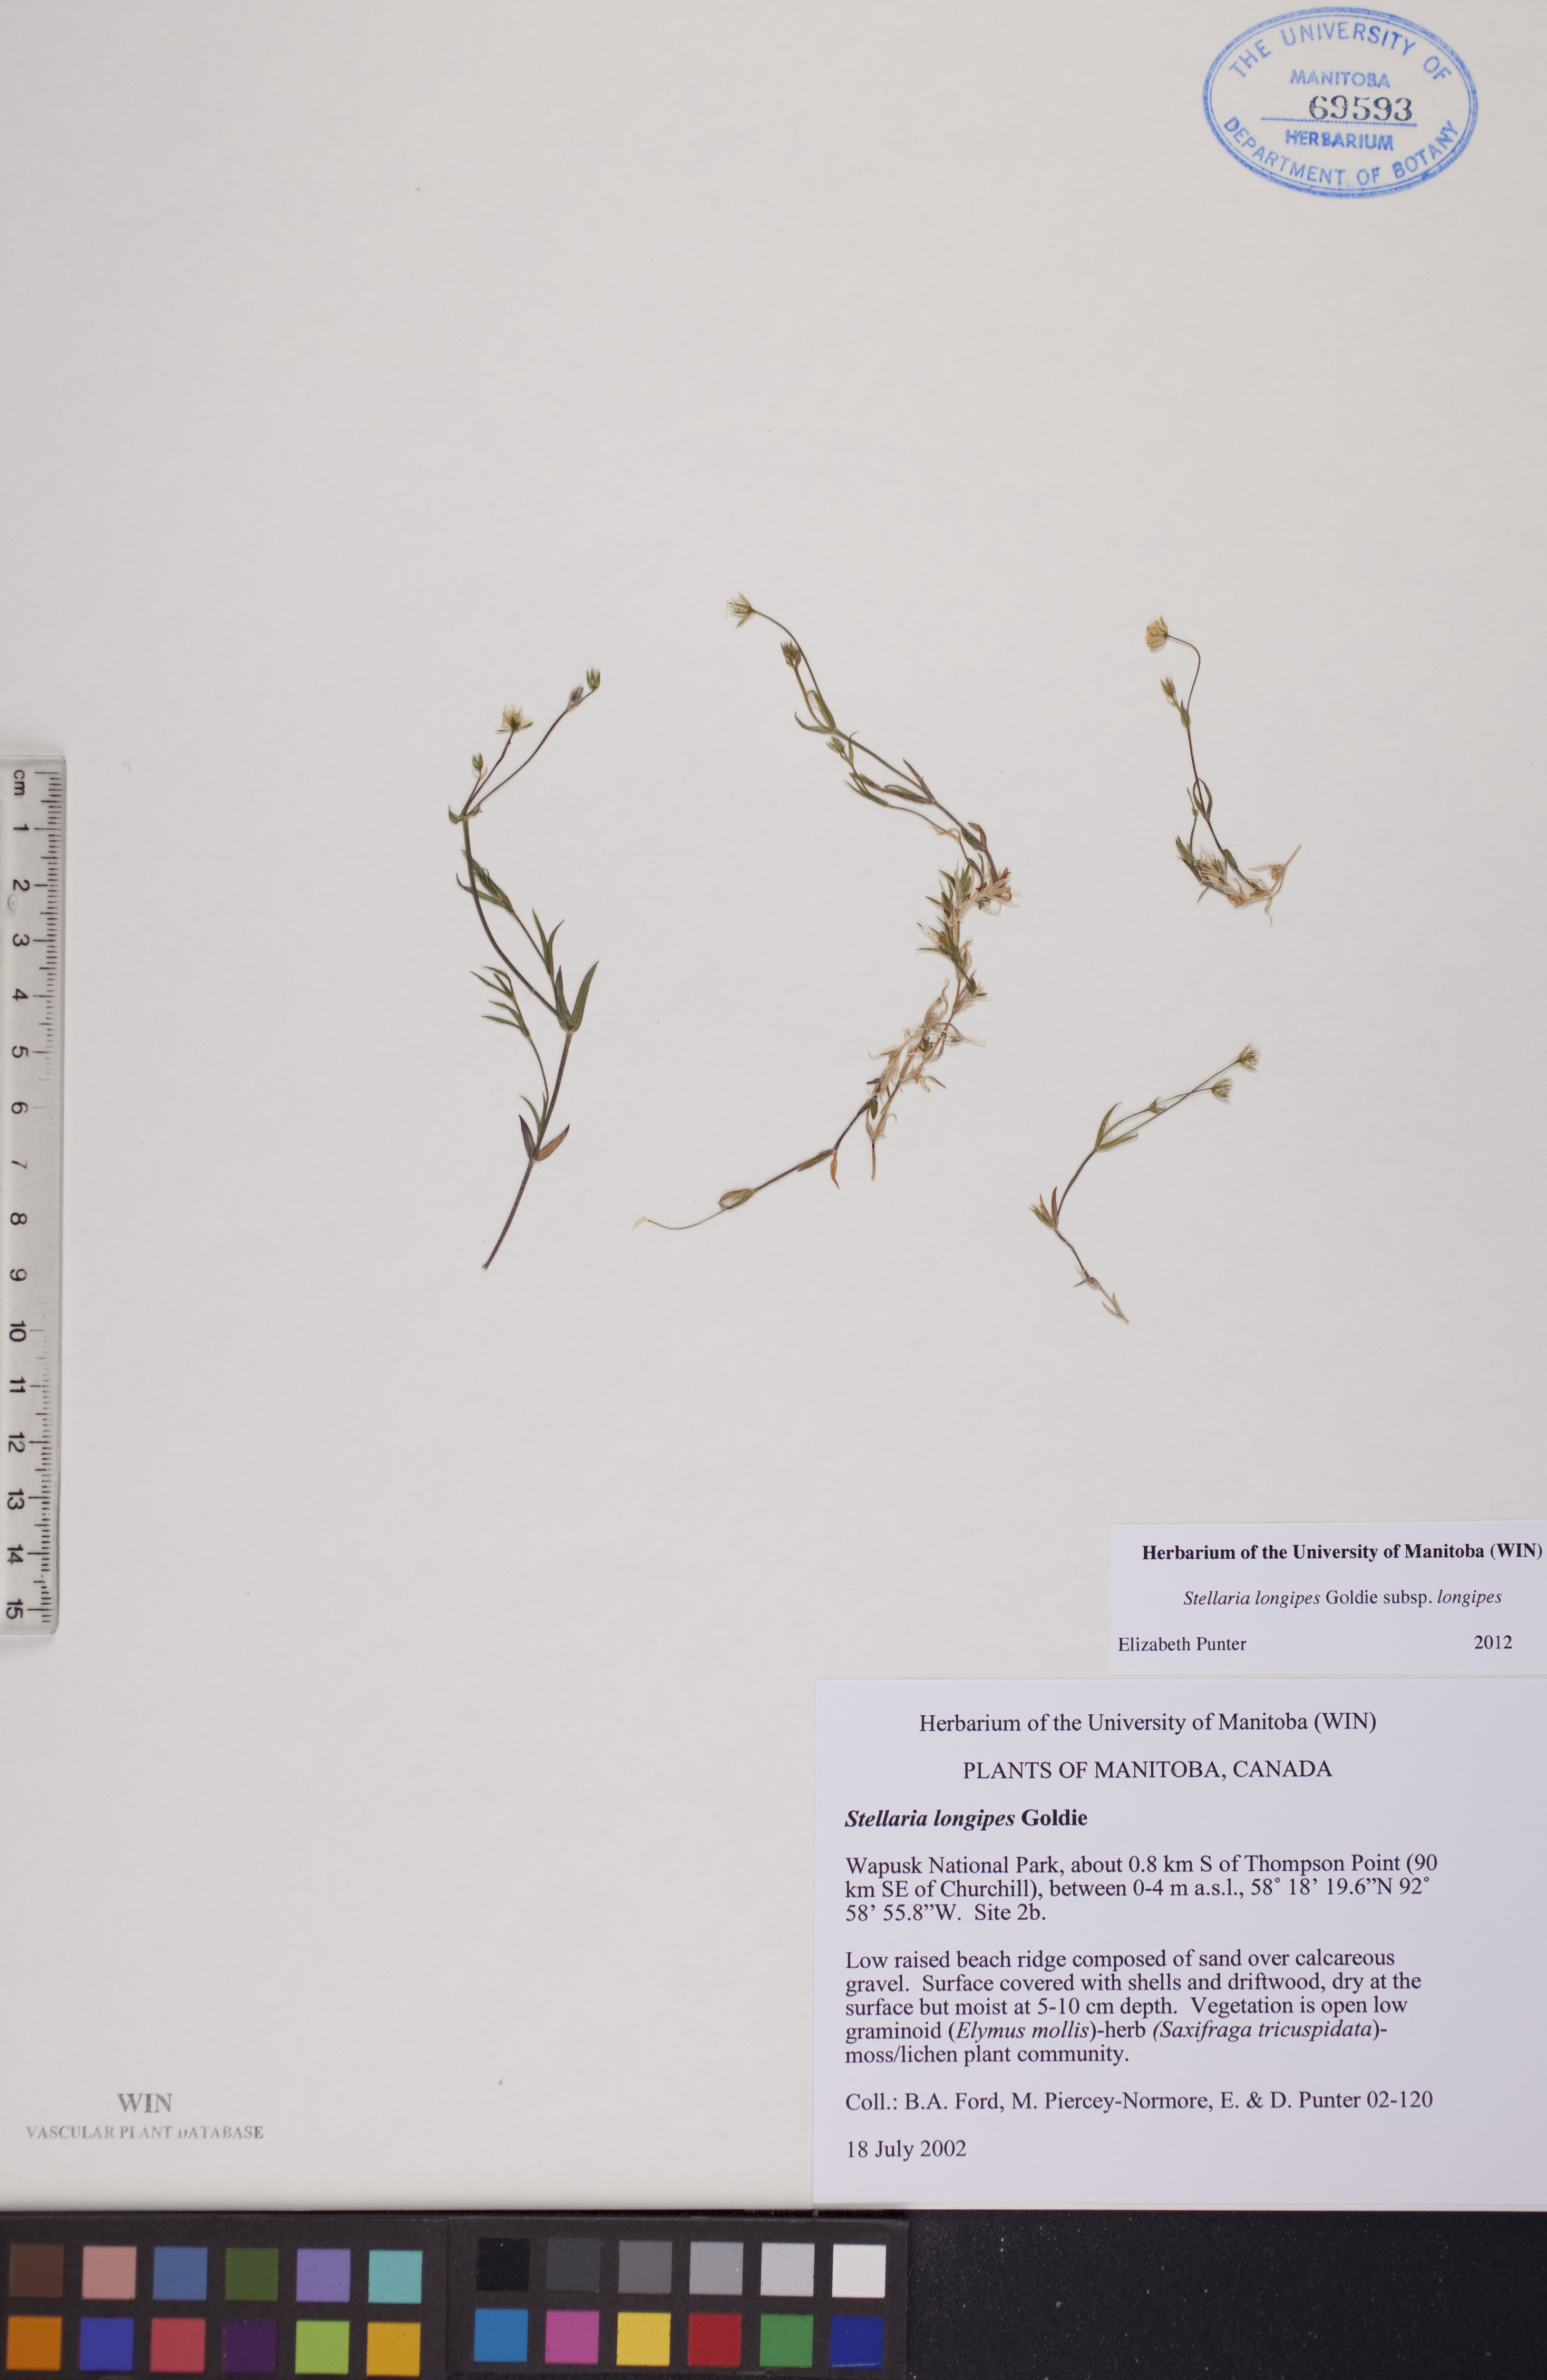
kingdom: Plantae
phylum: Tracheophyta
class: Magnoliopsida
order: Caryophyllales
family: Caryophyllaceae
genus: Stellaria
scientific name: Stellaria longipes
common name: Goldie's starwort
